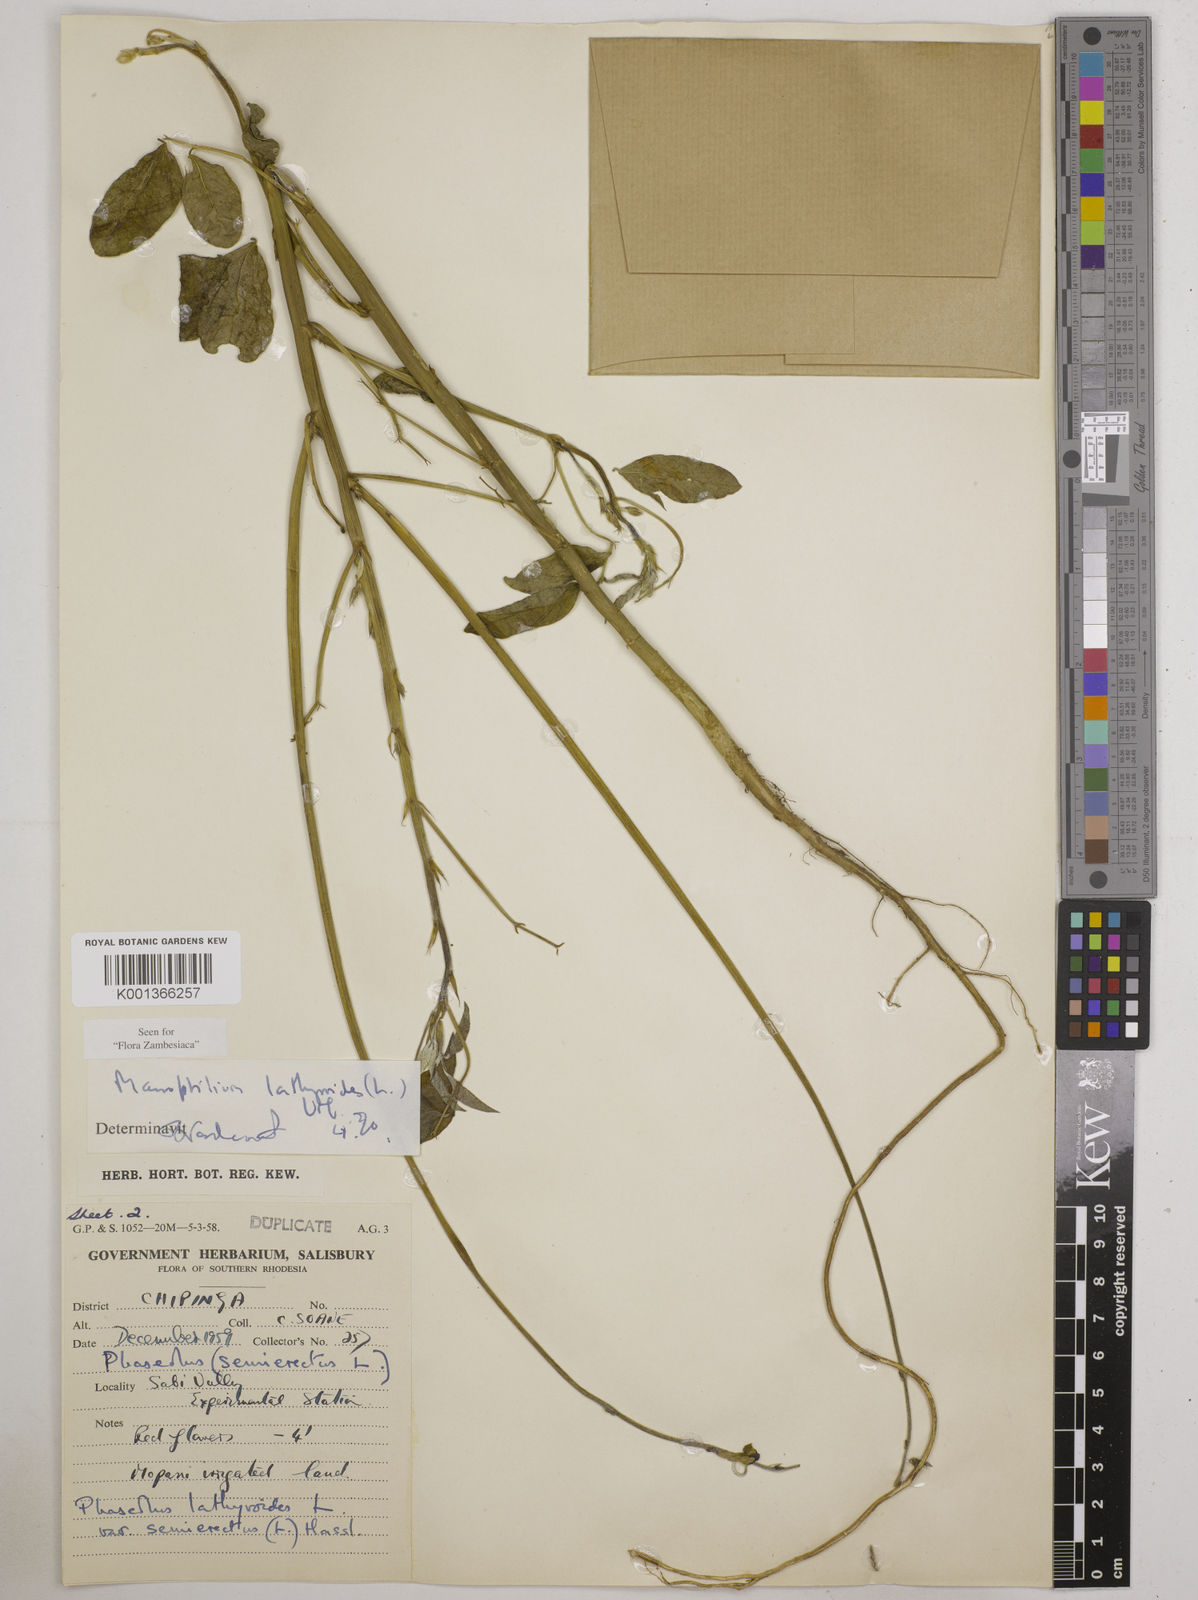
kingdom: Plantae
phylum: Tracheophyta
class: Magnoliopsida
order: Fabales
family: Fabaceae
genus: Macroptilium
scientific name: Macroptilium lathyroides
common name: Wild bushbean
